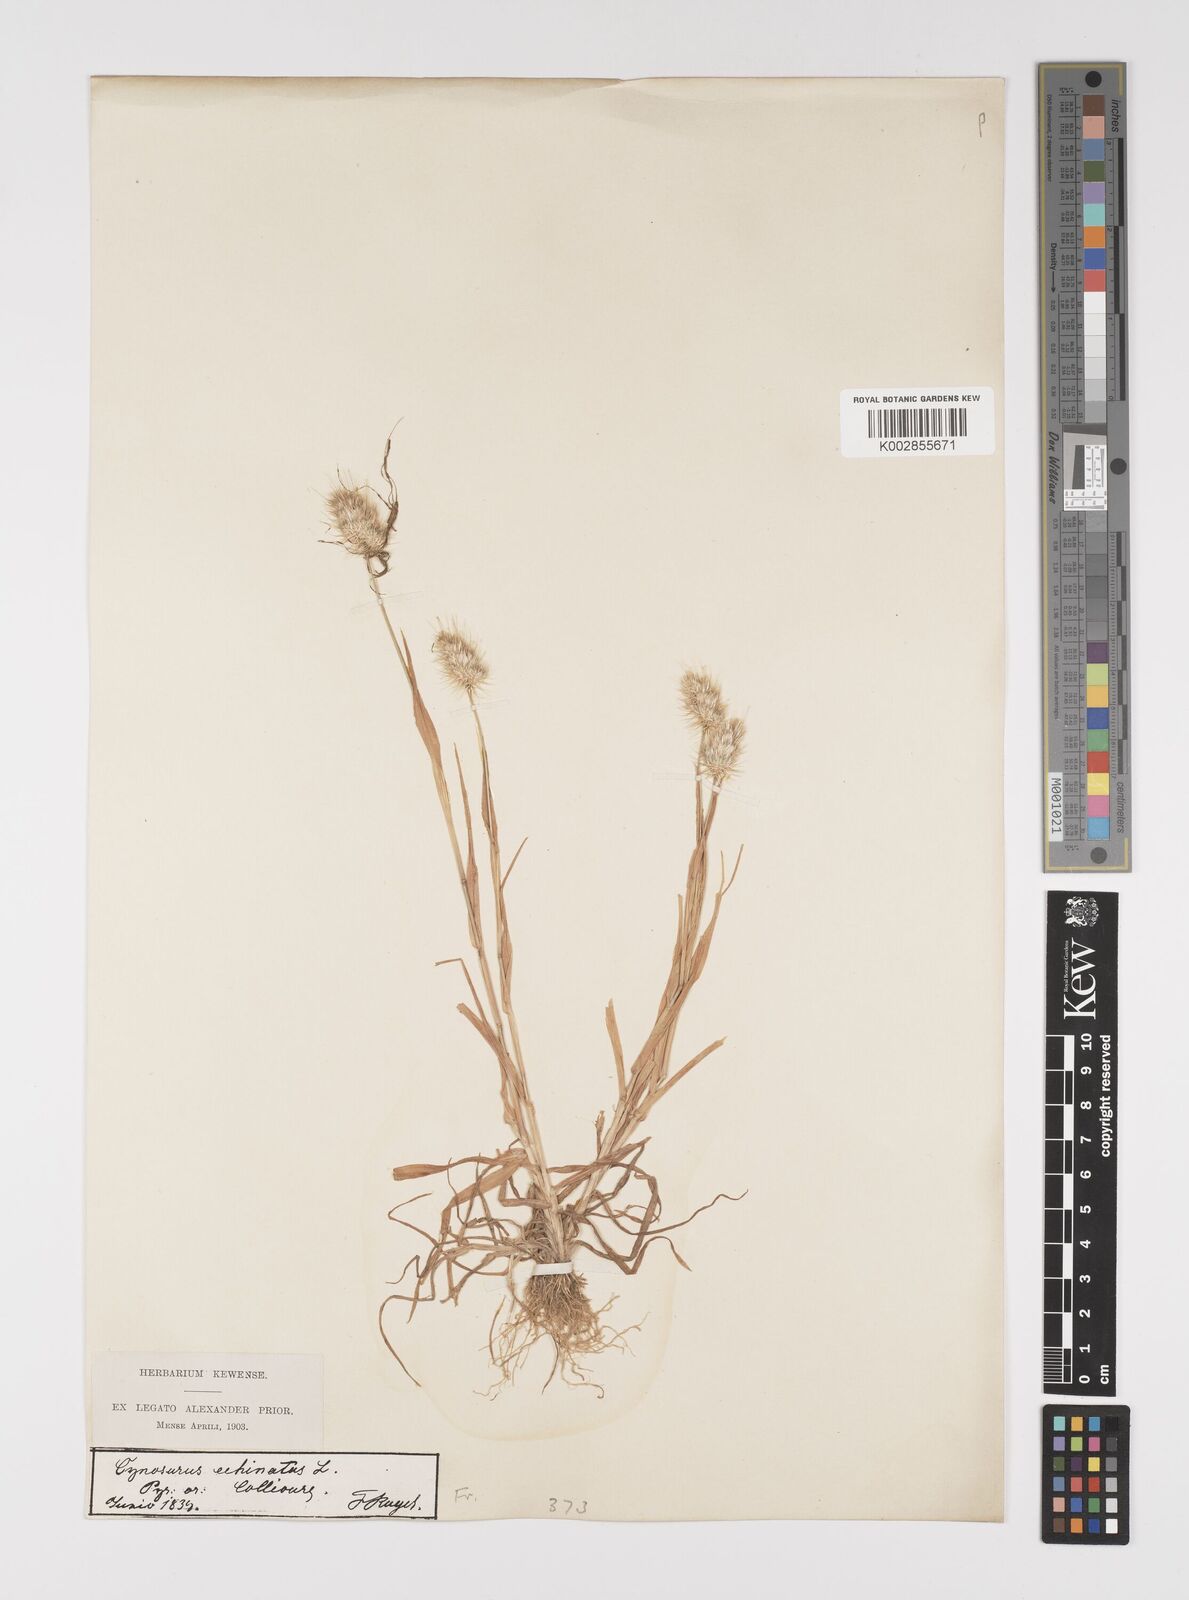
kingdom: Plantae
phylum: Tracheophyta
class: Liliopsida
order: Poales
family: Poaceae
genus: Cynosurus
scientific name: Cynosurus echinatus
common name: Rough dog's-tail
